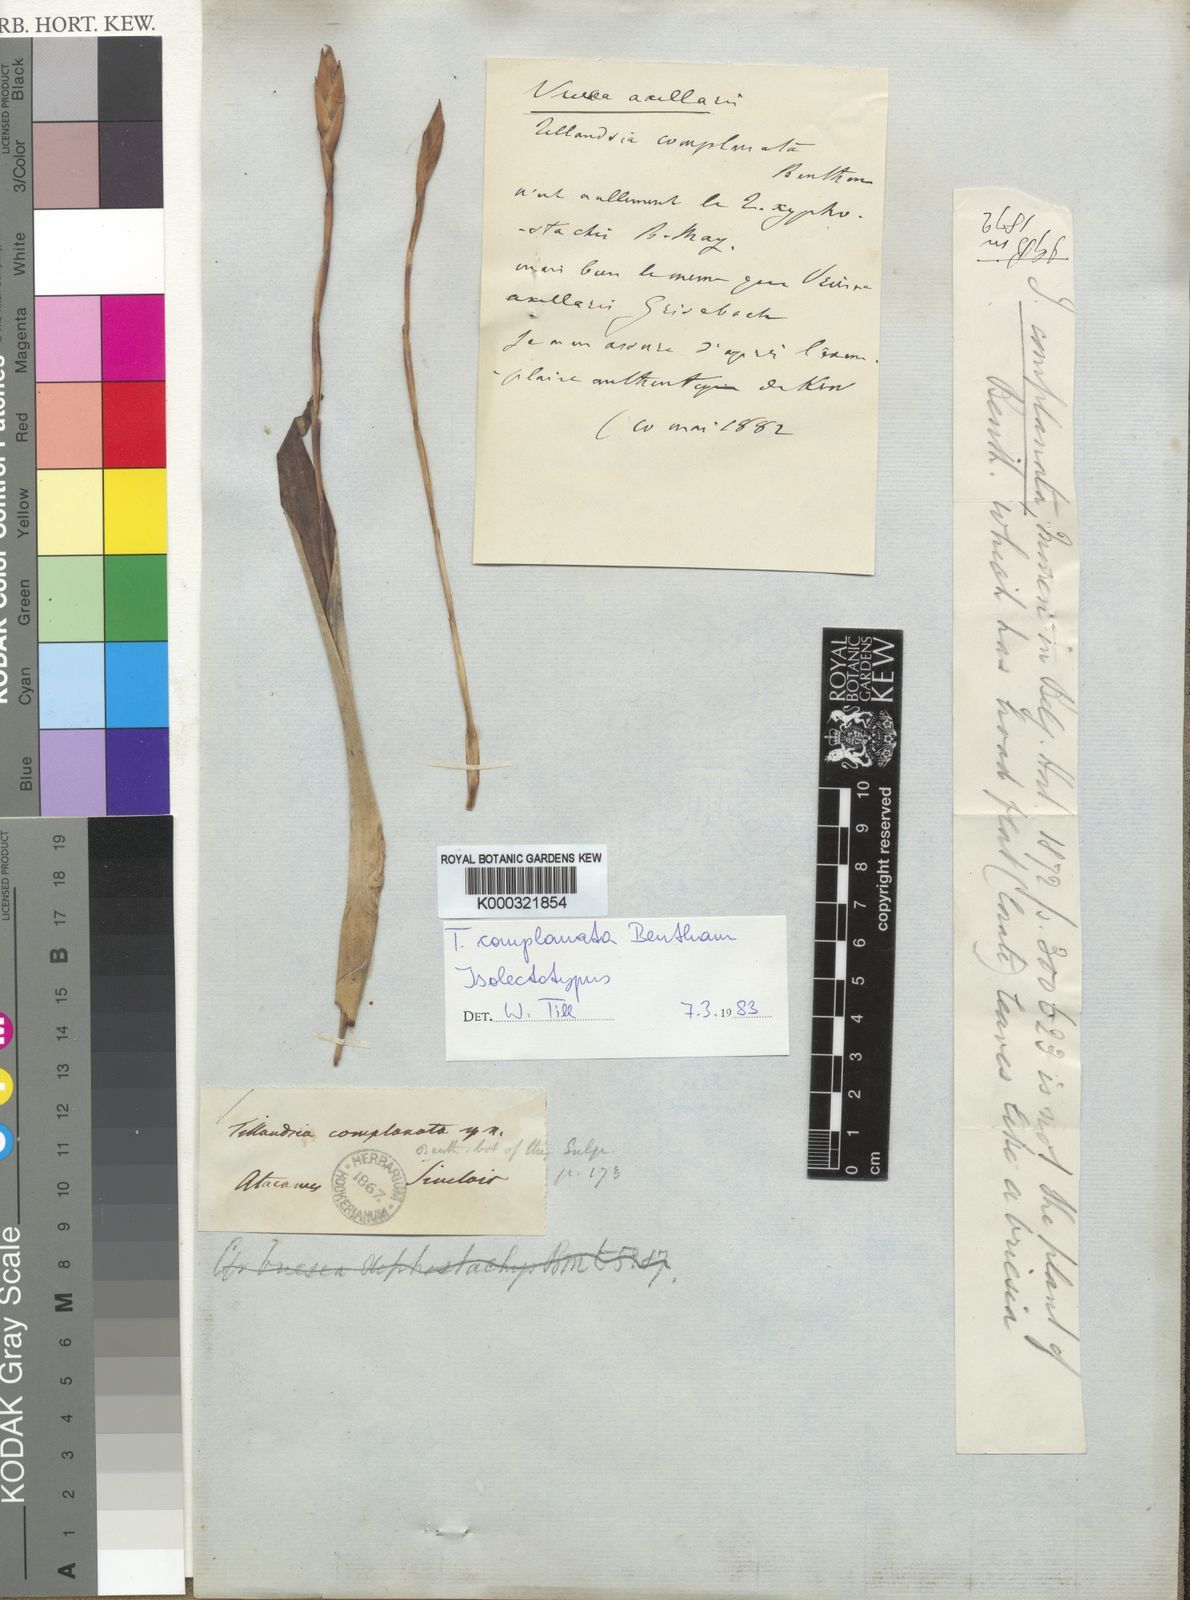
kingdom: Plantae
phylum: Tracheophyta
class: Liliopsida
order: Poales
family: Bromeliaceae
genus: Tillandsia
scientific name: Tillandsia complanata
